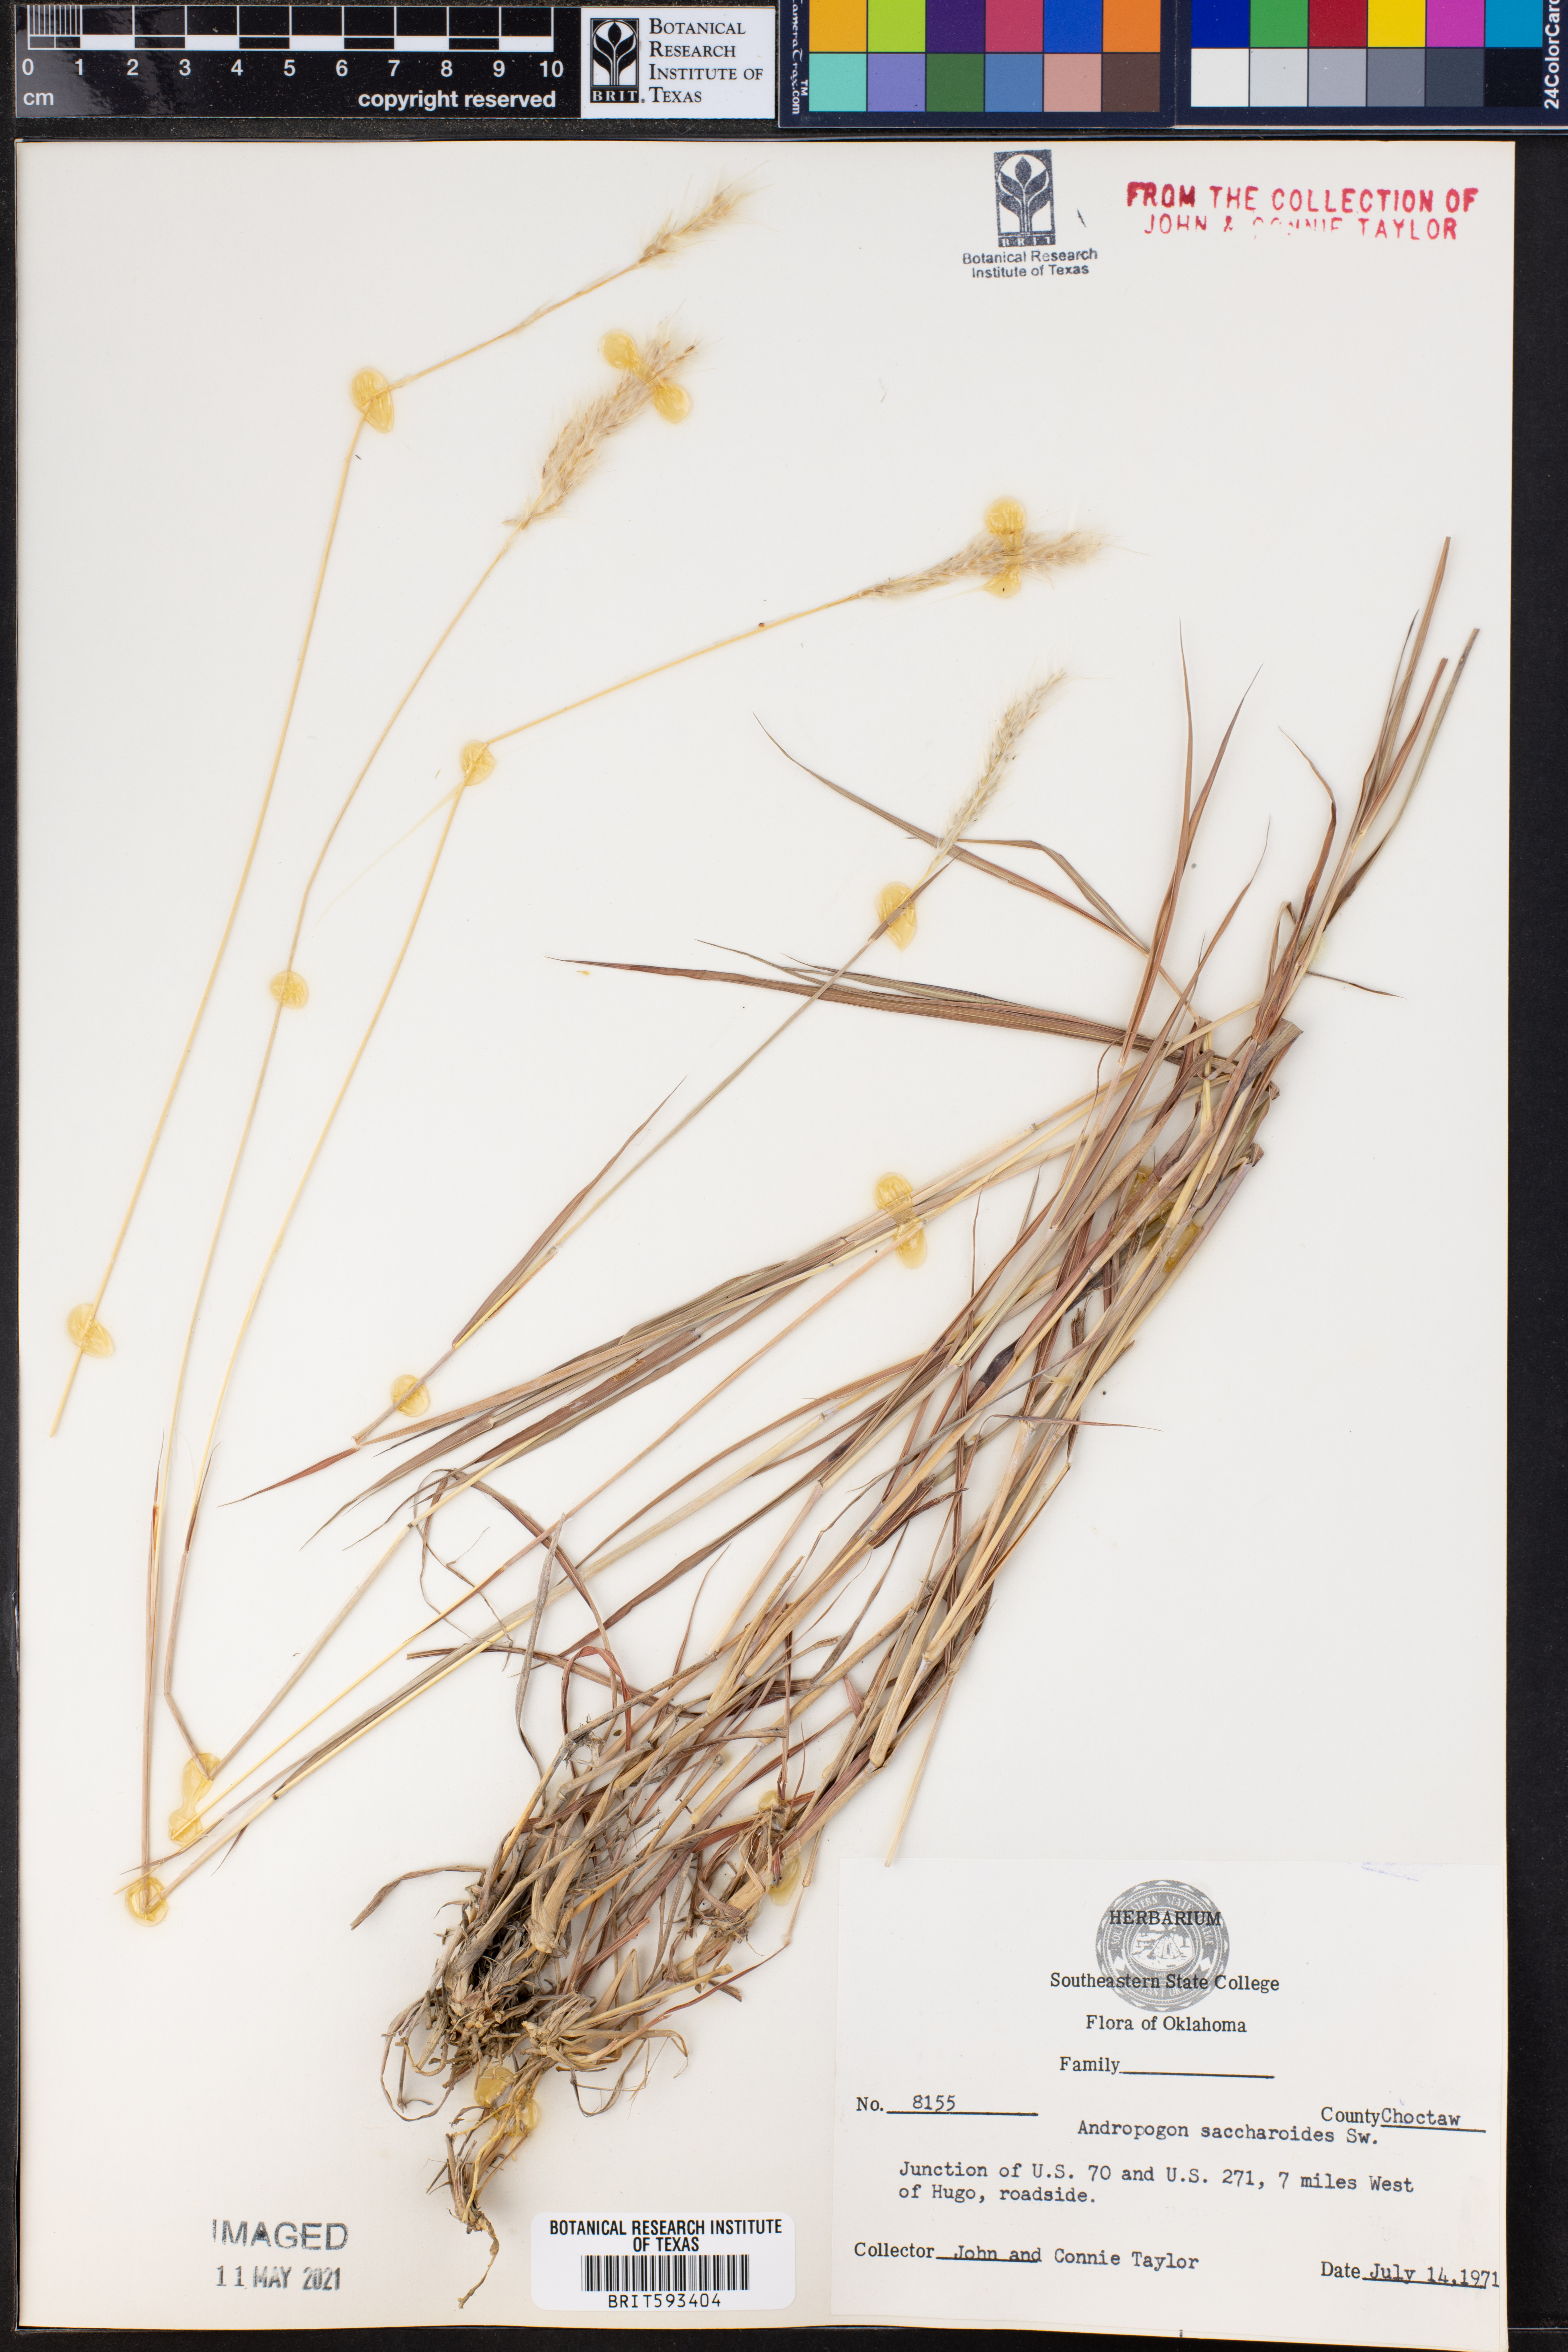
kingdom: Plantae
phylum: Tracheophyta
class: Liliopsida
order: Poales
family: Poaceae
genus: Bothriochloa
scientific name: Bothriochloa saccharoides
